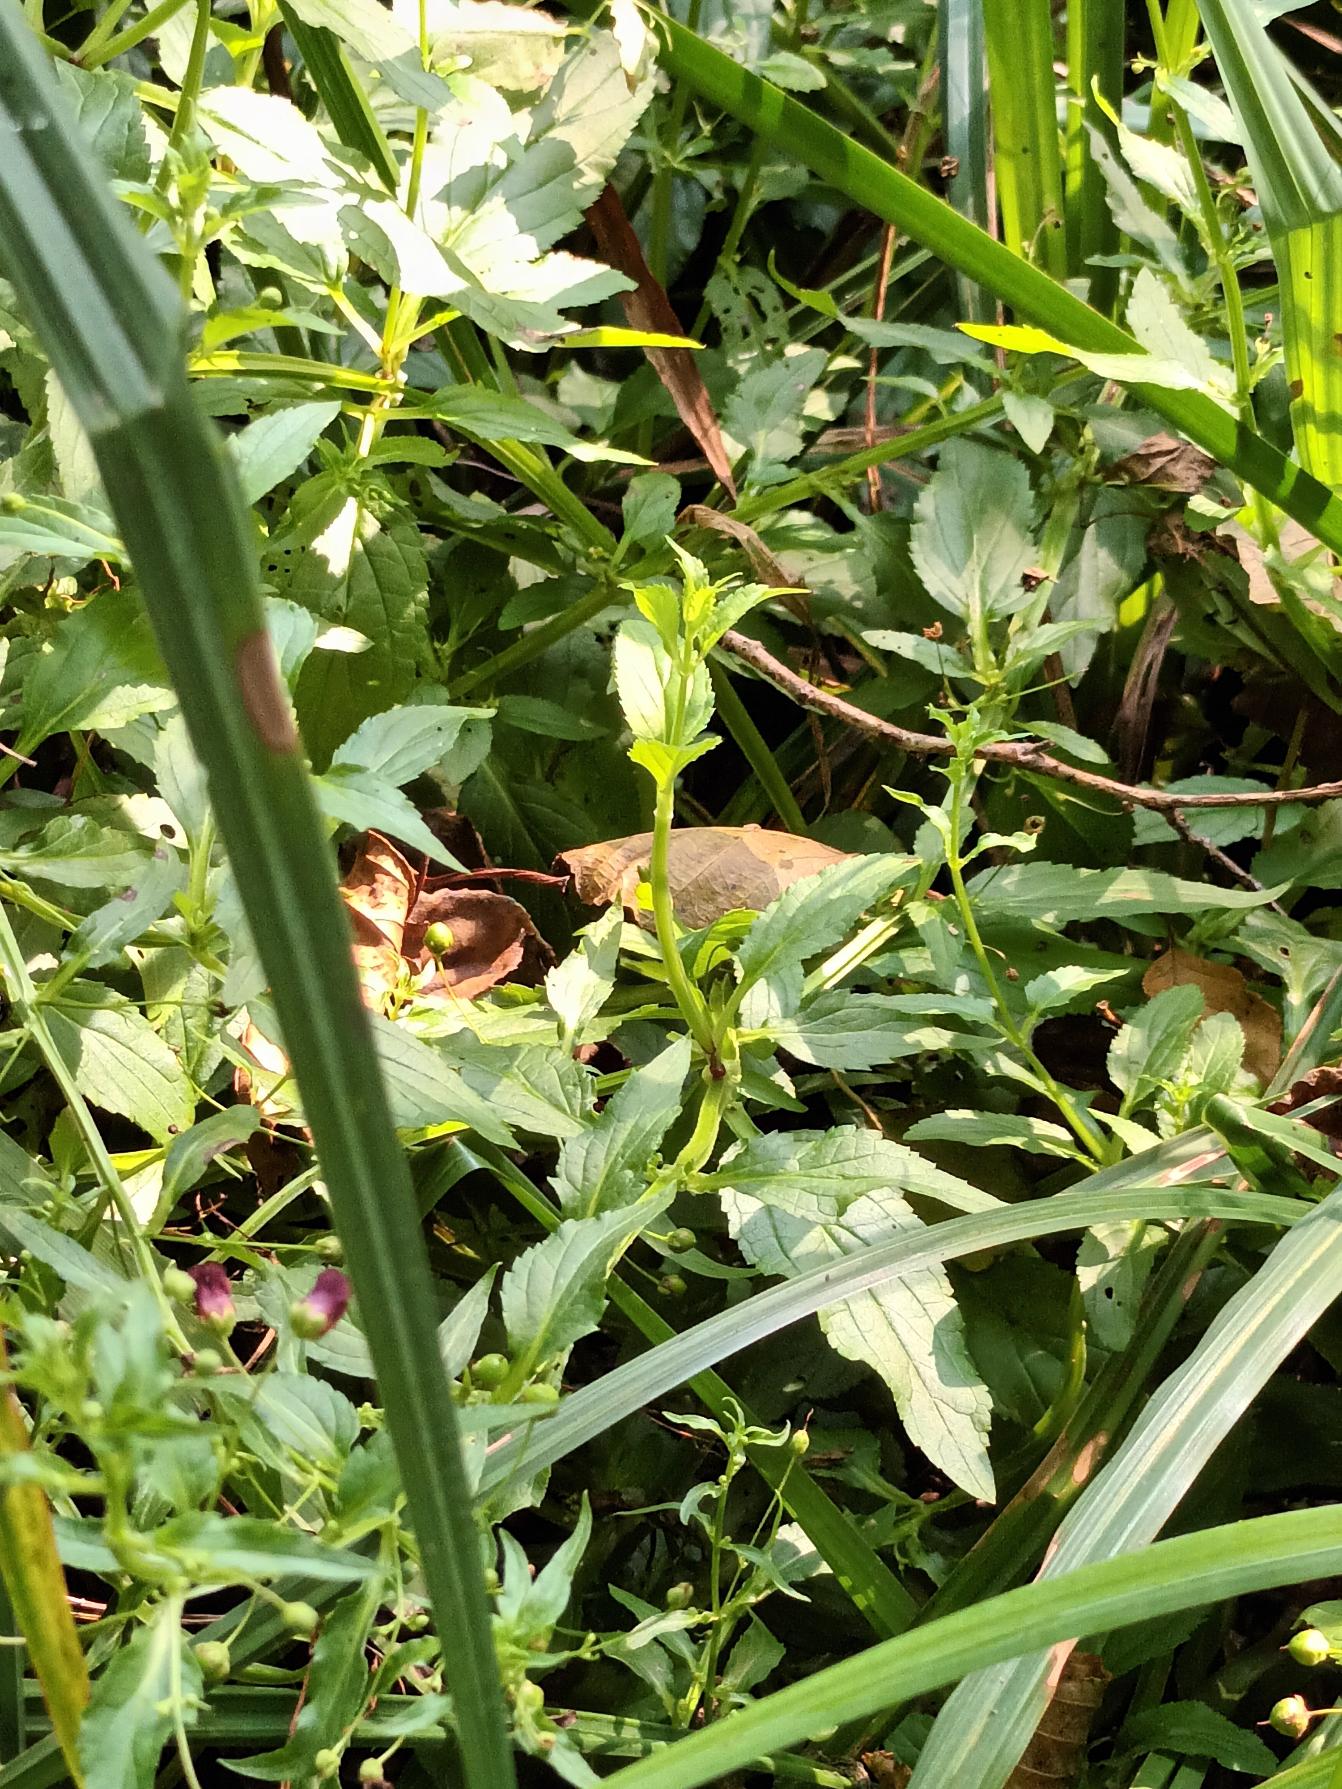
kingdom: Plantae
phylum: Tracheophyta
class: Magnoliopsida
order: Lamiales
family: Scrophulariaceae
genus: Scrophularia
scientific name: Scrophularia umbrosa
